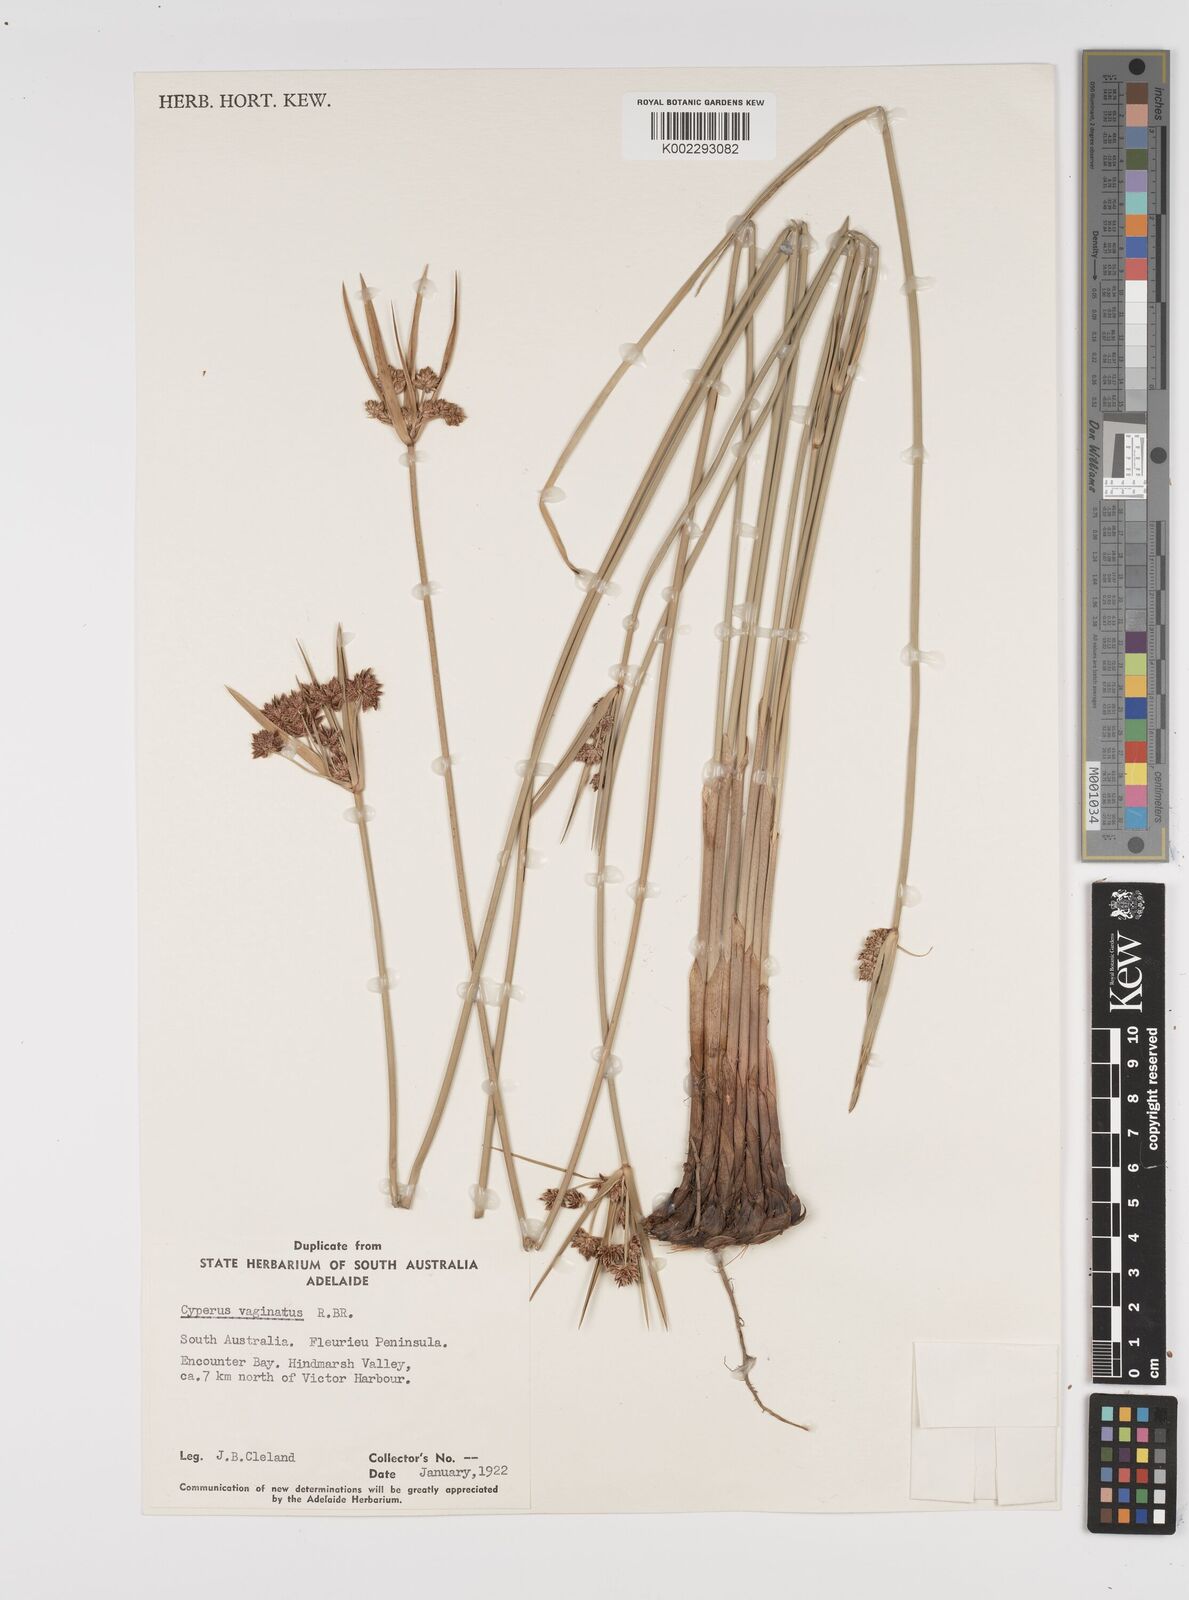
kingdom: Plantae
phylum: Tracheophyta
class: Liliopsida
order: Poales
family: Cyperaceae
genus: Cyperus
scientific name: Cyperus vaginatus
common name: Stiff-leaved flat-sedge
